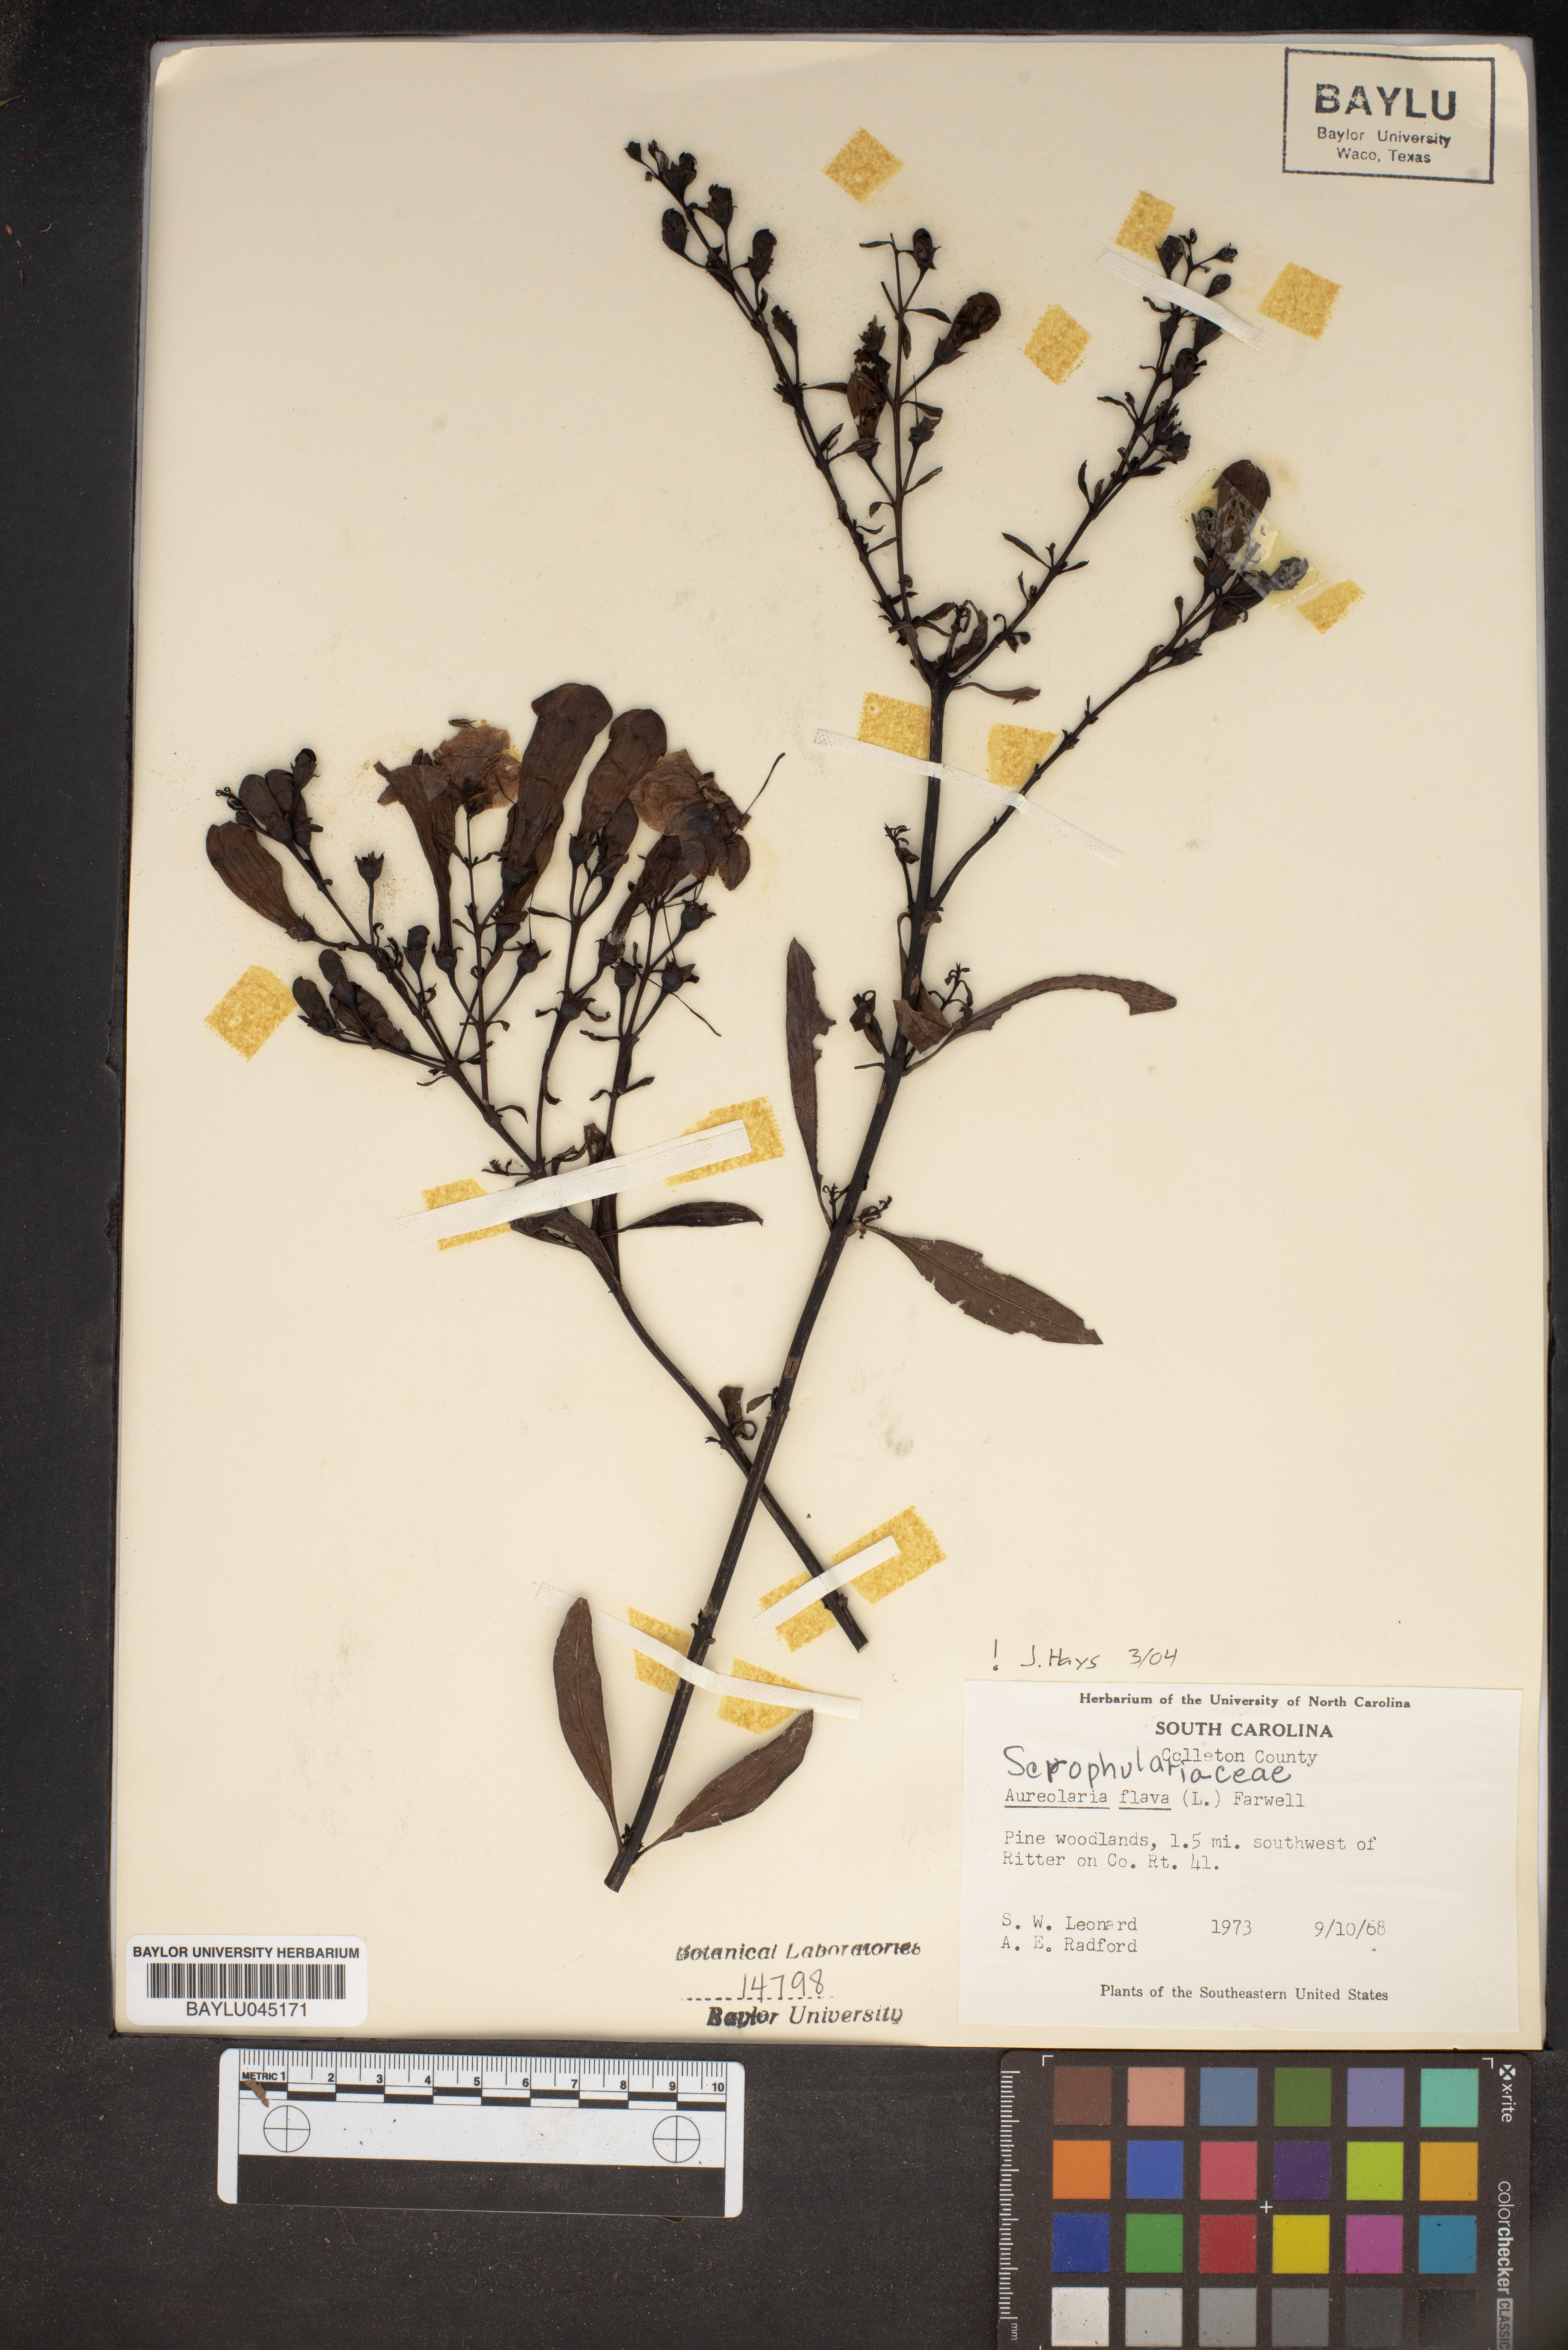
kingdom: Plantae
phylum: Tracheophyta
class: Magnoliopsida
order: Lamiales
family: Orobanchaceae
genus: Aureolaria
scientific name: Aureolaria flava
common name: Smooth false foxglove
